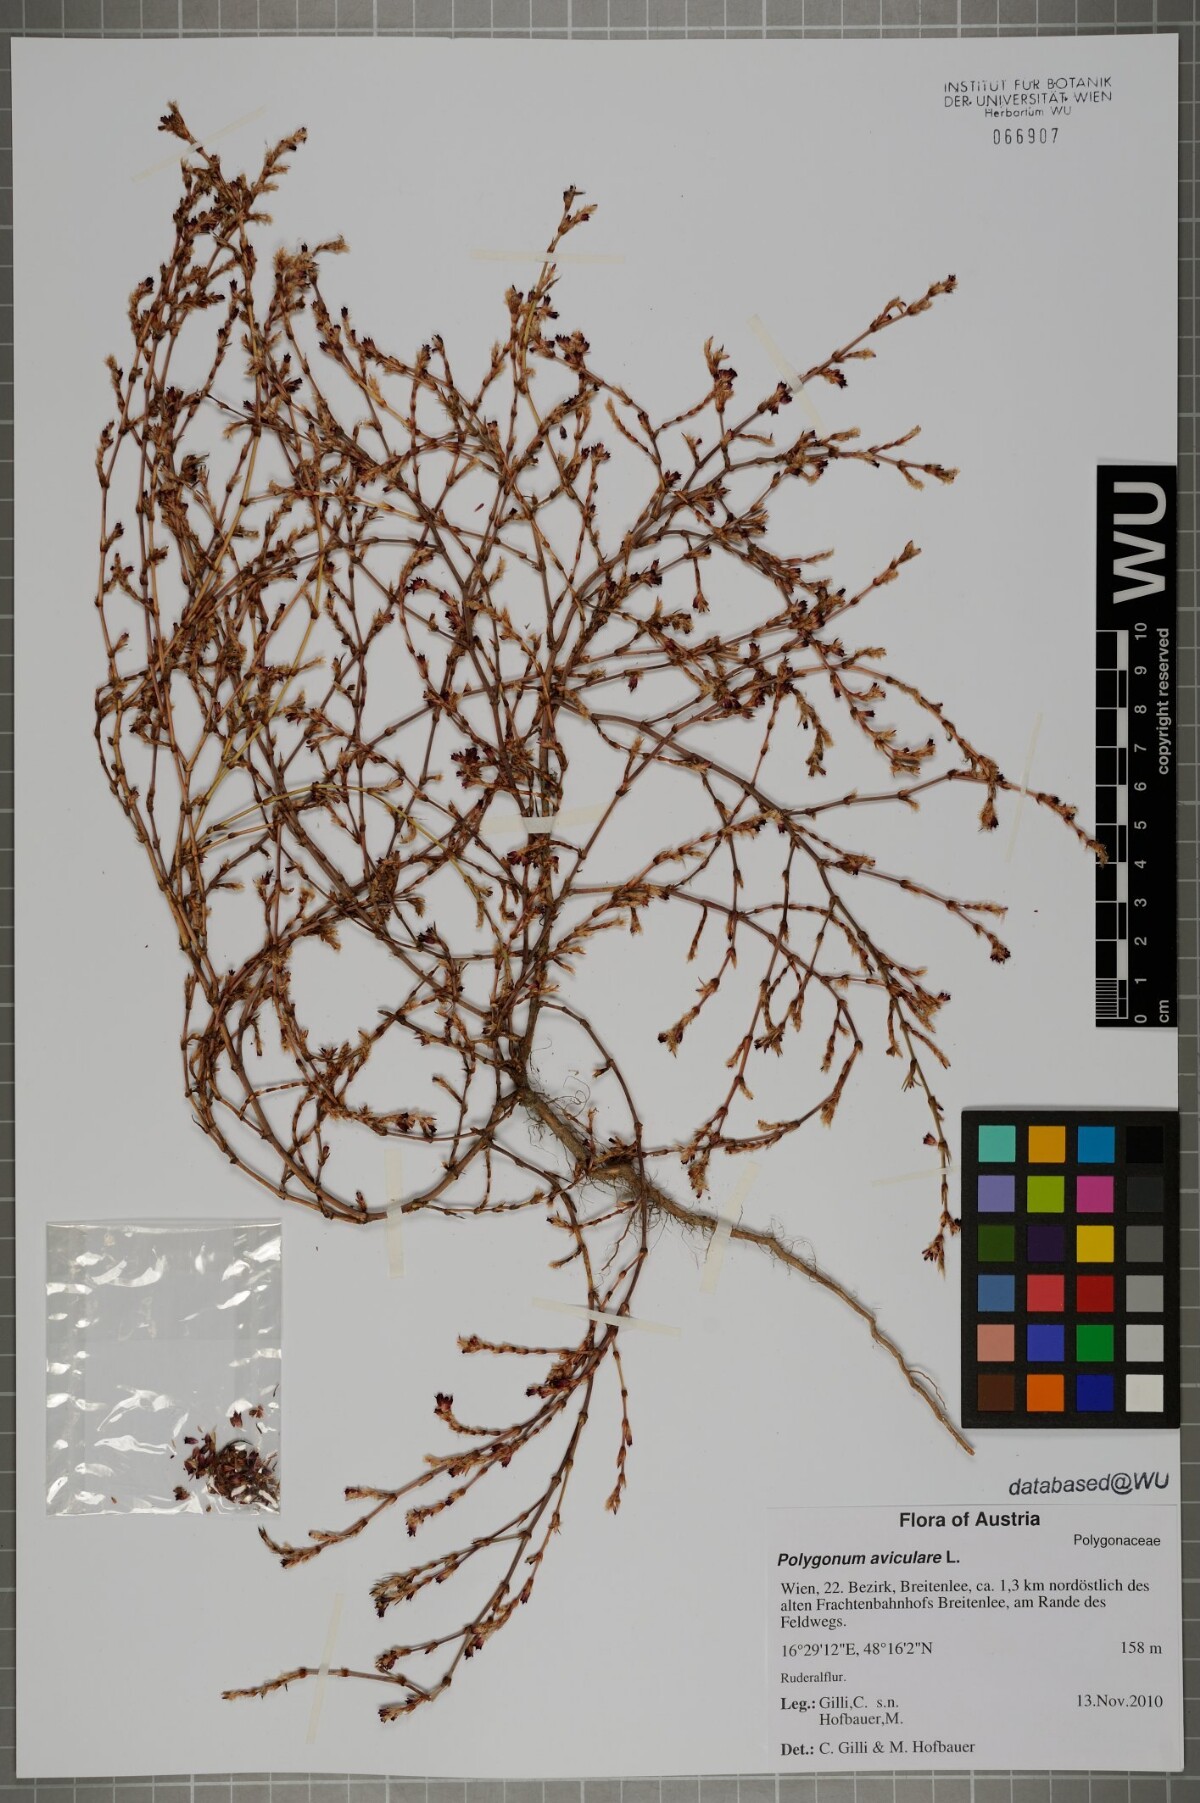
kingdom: Plantae
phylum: Tracheophyta
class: Magnoliopsida
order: Caryophyllales
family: Polygonaceae
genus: Polygonum
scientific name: Polygonum arenastrum
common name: Equal-leaved knotgrass
